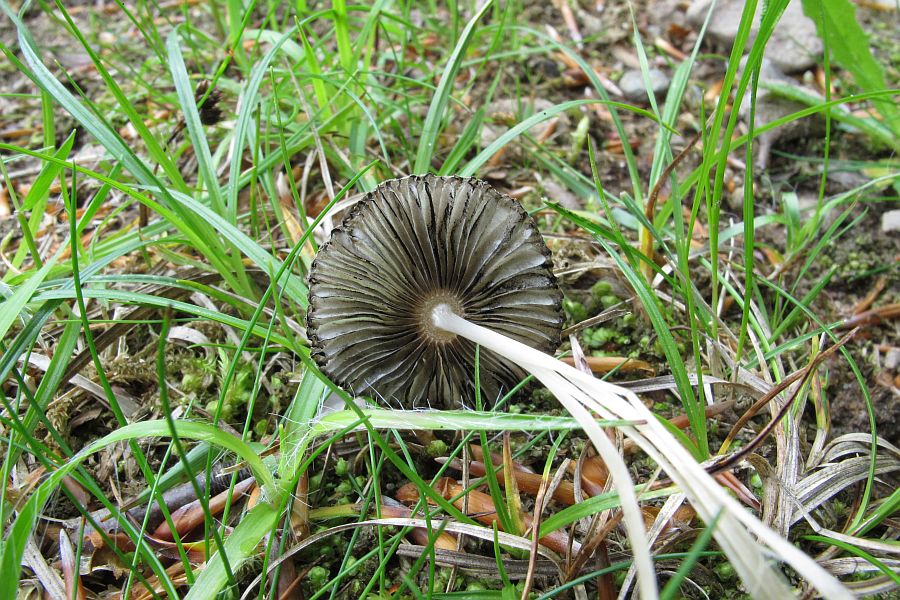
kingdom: Fungi
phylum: Basidiomycota
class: Agaricomycetes
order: Agaricales
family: Psathyrellaceae
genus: Parasola
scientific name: Parasola lactea
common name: glat hjulhat
